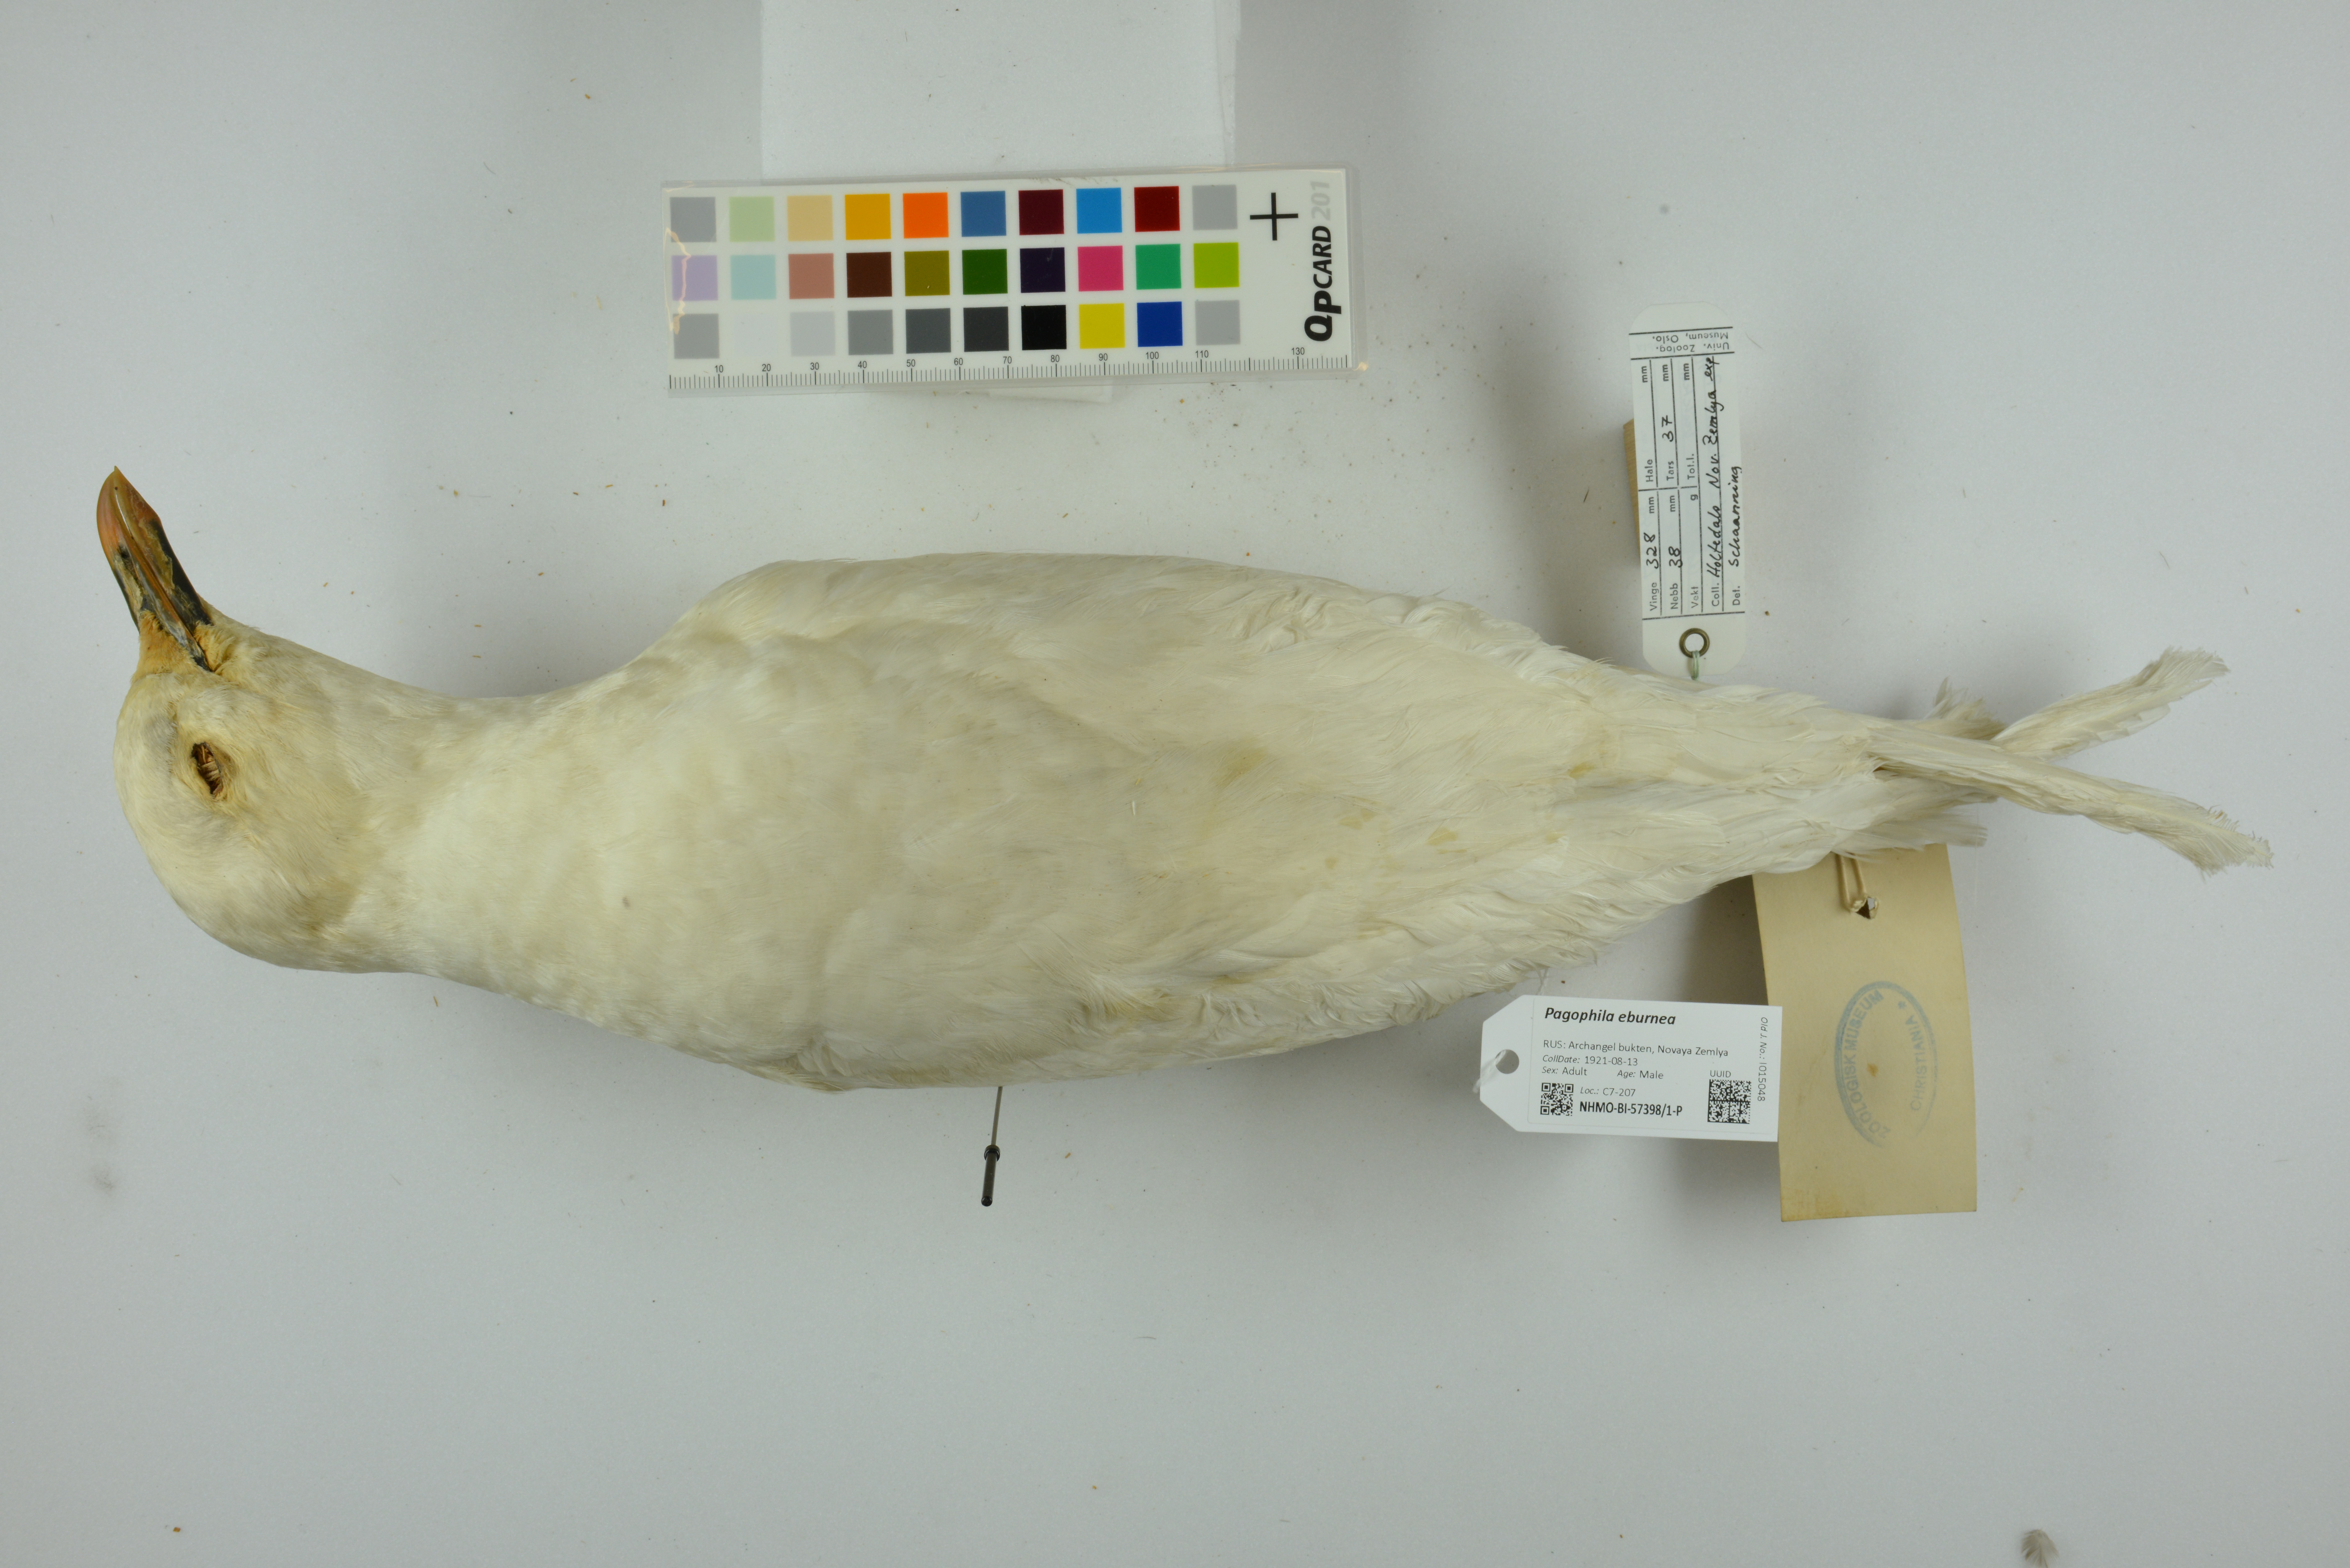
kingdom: Animalia
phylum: Chordata
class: Aves
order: Charadriiformes
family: Laridae
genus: Pagophila
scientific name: Pagophila eburnea
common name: Ivory gull
